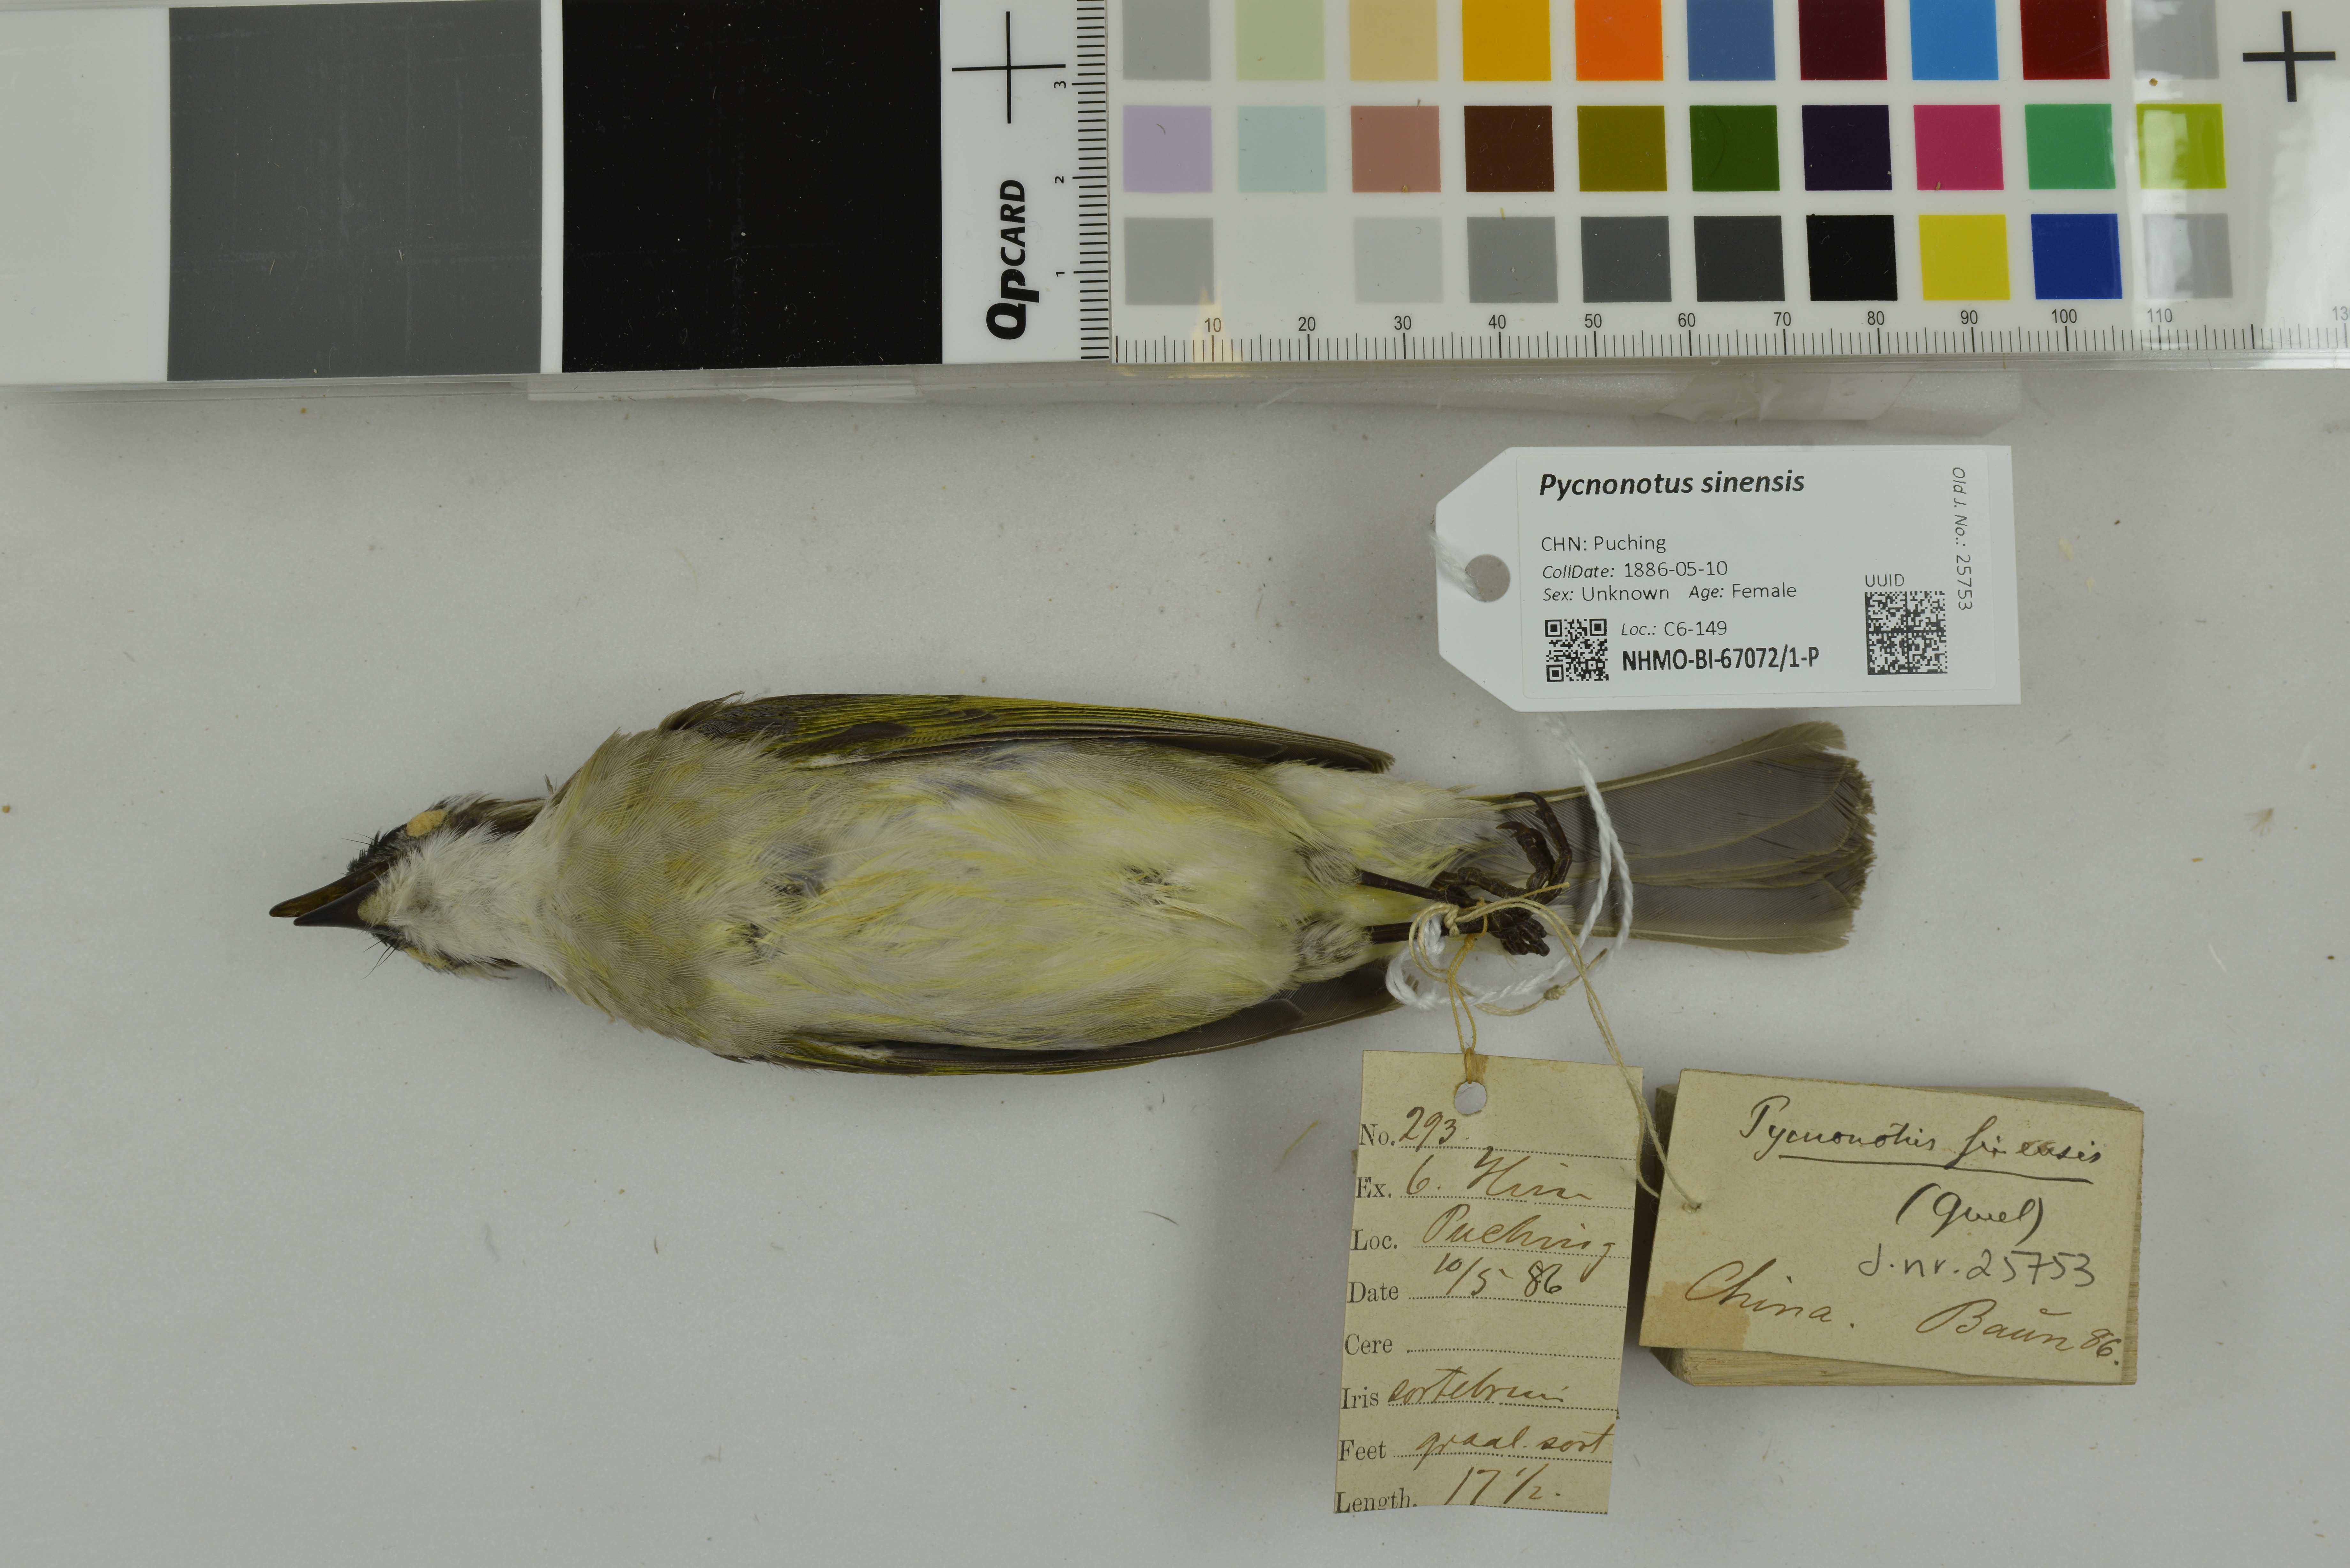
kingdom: Animalia
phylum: Chordata
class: Aves
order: Passeriformes
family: Pycnonotidae
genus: Pycnonotus
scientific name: Pycnonotus sinensis
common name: Light-vented bulbul
